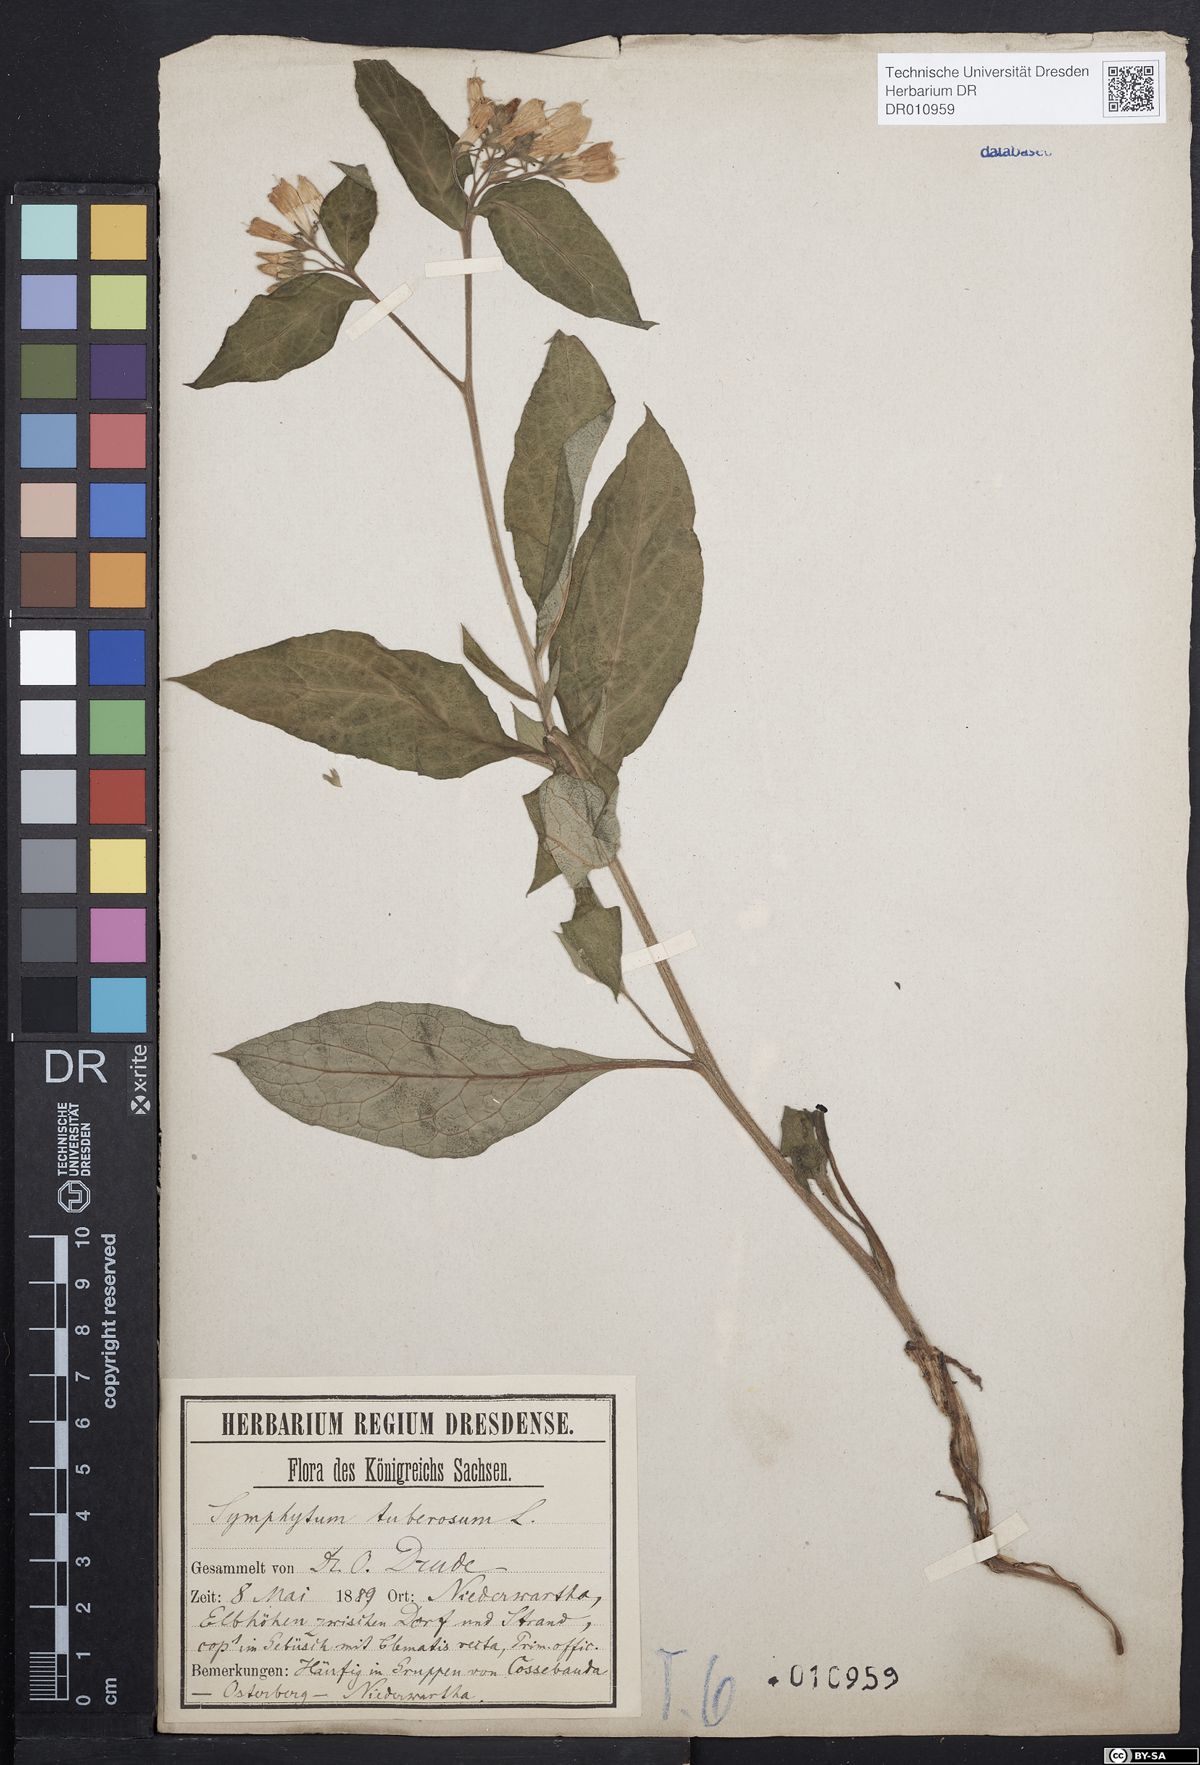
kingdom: Plantae
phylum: Tracheophyta
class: Magnoliopsida
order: Boraginales
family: Boraginaceae
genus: Symphytum
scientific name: Symphytum tuberosum
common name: Tuberous comfrey
